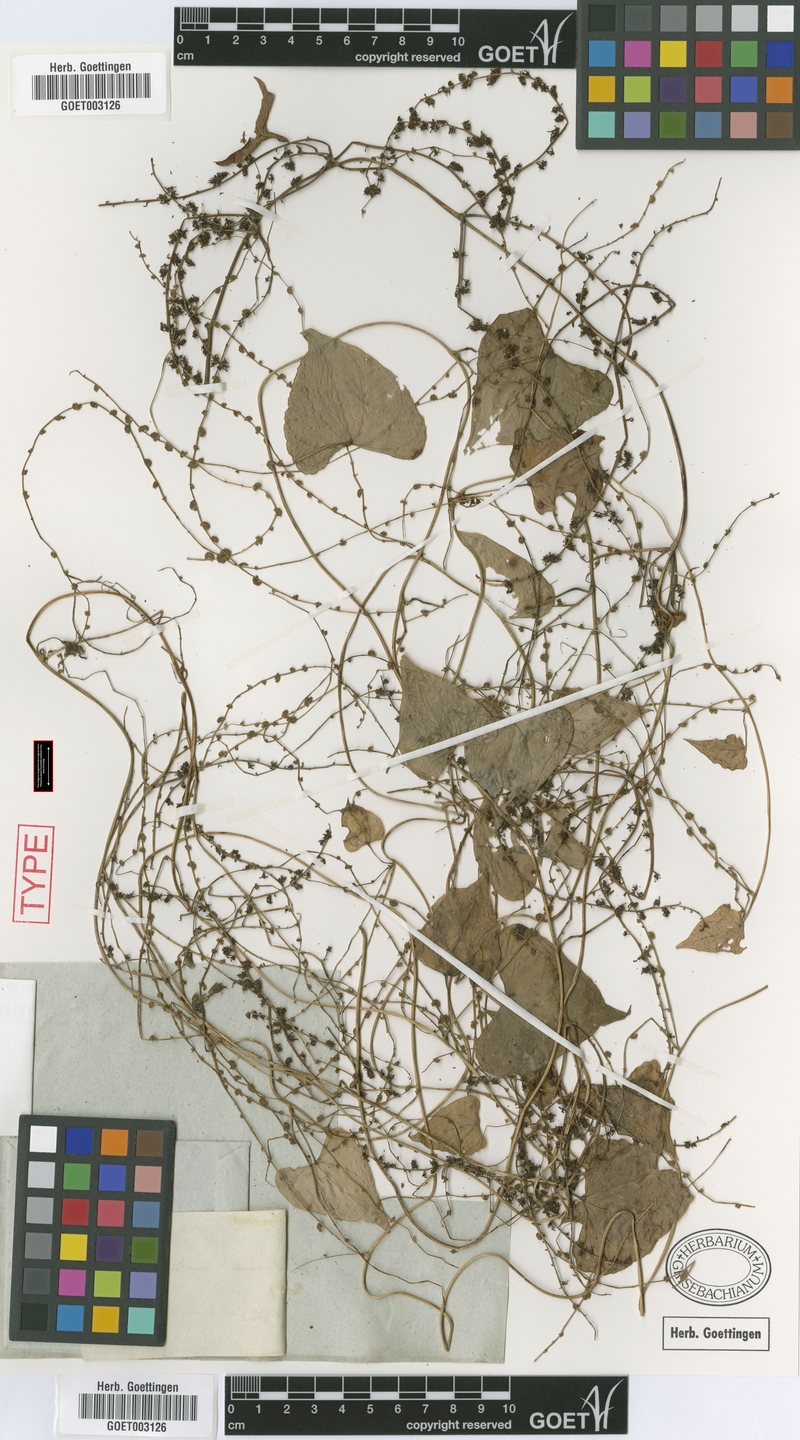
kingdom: Plantae
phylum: Tracheophyta
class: Liliopsida
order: Dioscoreales
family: Dioscoreaceae
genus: Dioscorea
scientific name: Dioscorea polygonoides
